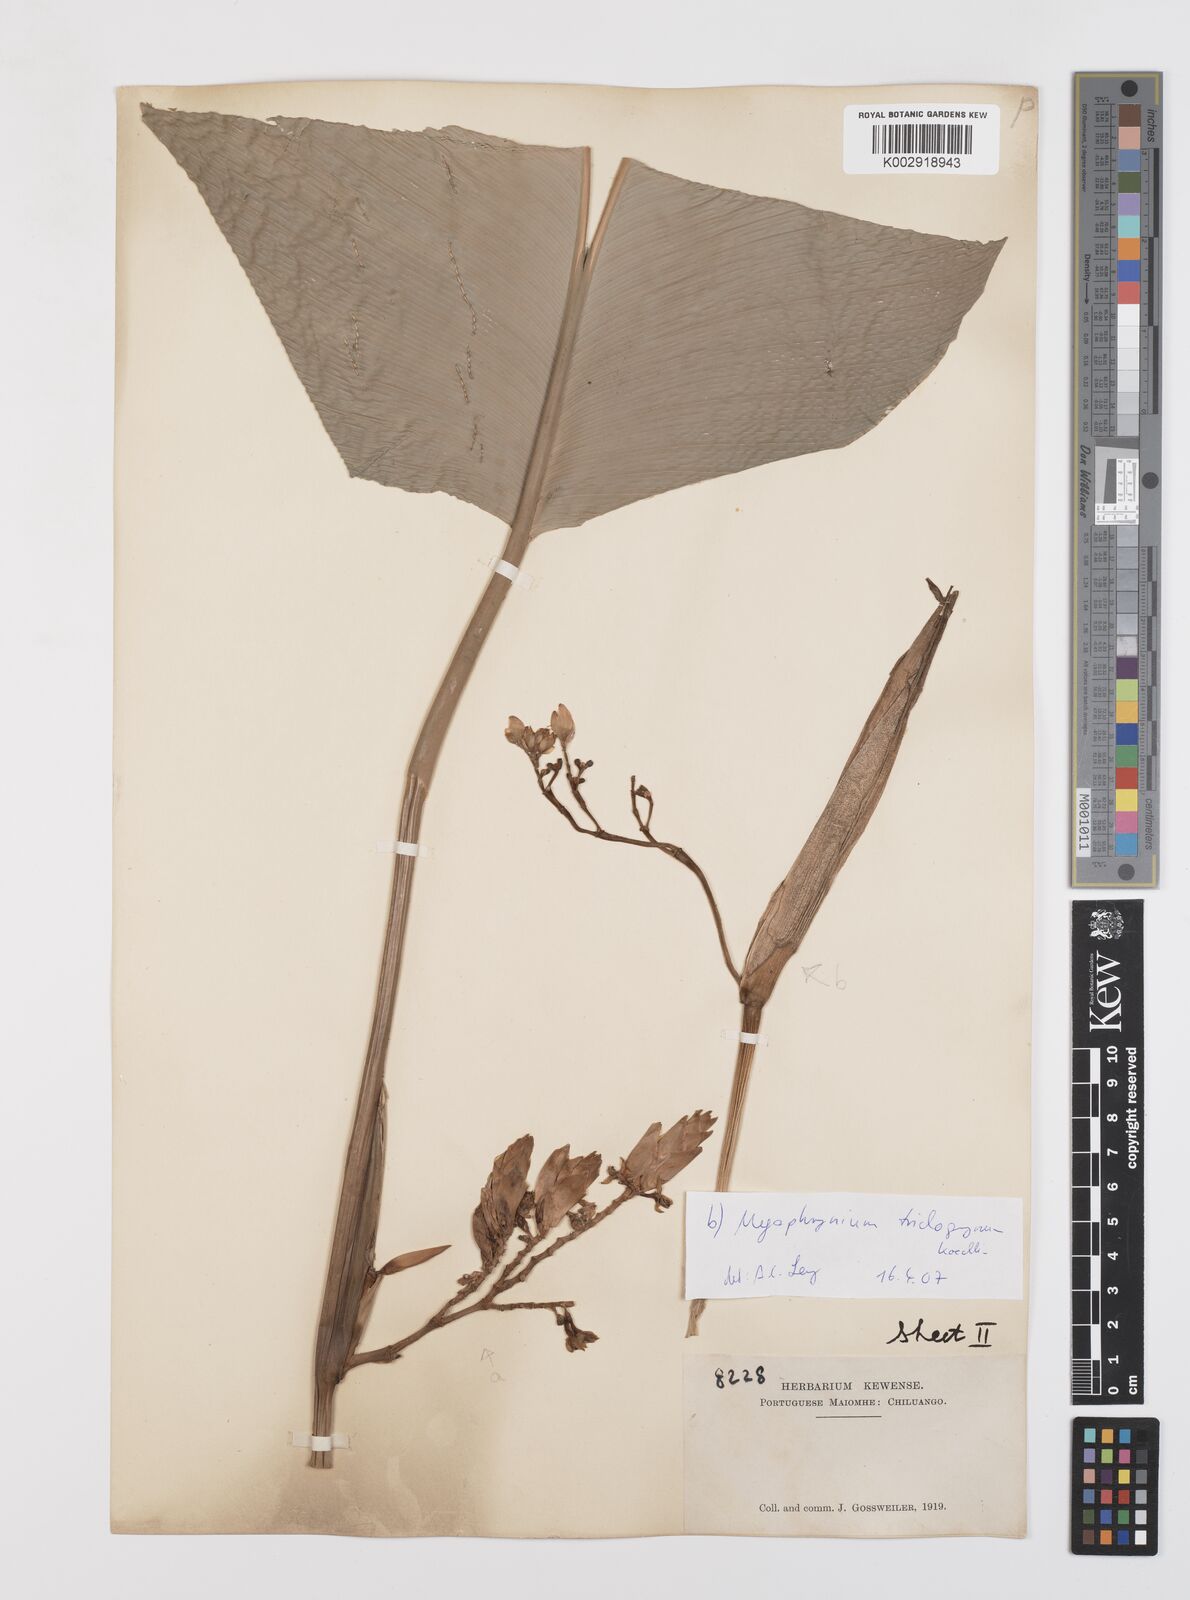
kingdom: Plantae
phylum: Tracheophyta
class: Liliopsida
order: Zingiberales
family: Marantaceae
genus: Megaphrynium
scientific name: Megaphrynium trichogynum
